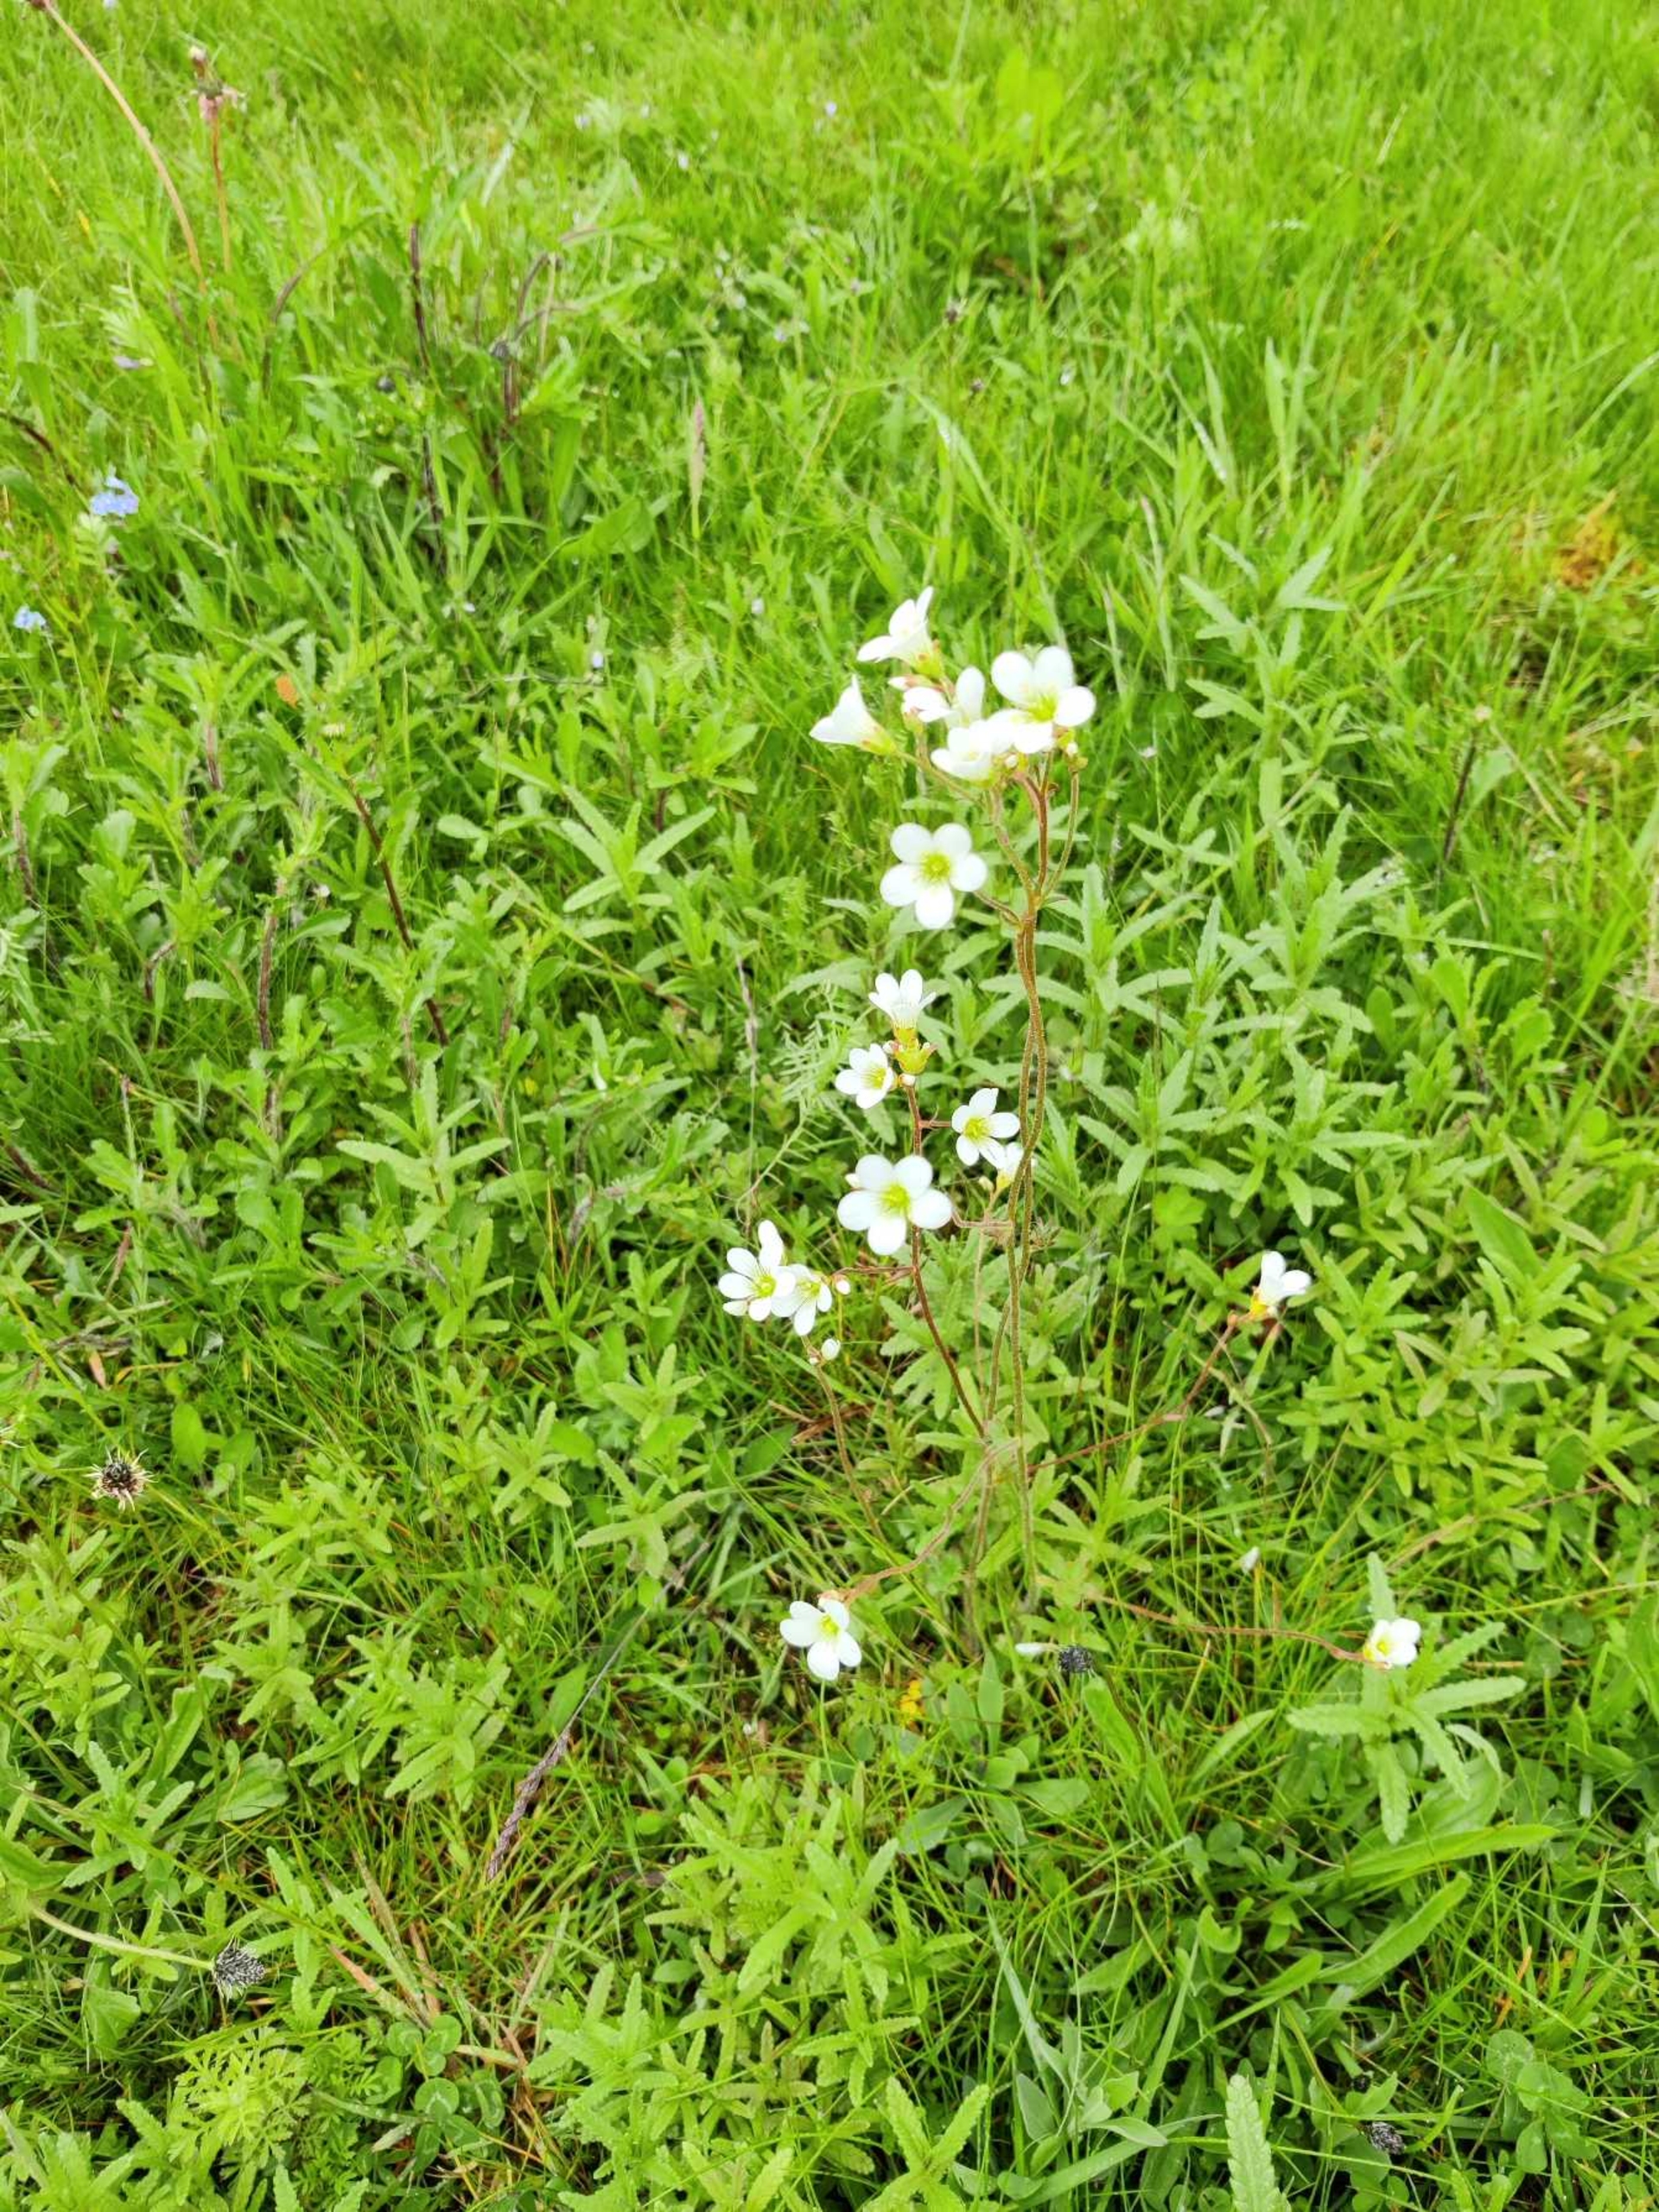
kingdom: Plantae
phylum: Tracheophyta
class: Magnoliopsida
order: Saxifragales
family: Saxifragaceae
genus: Saxifraga
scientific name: Saxifraga granulata
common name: Kornet stenbræk
